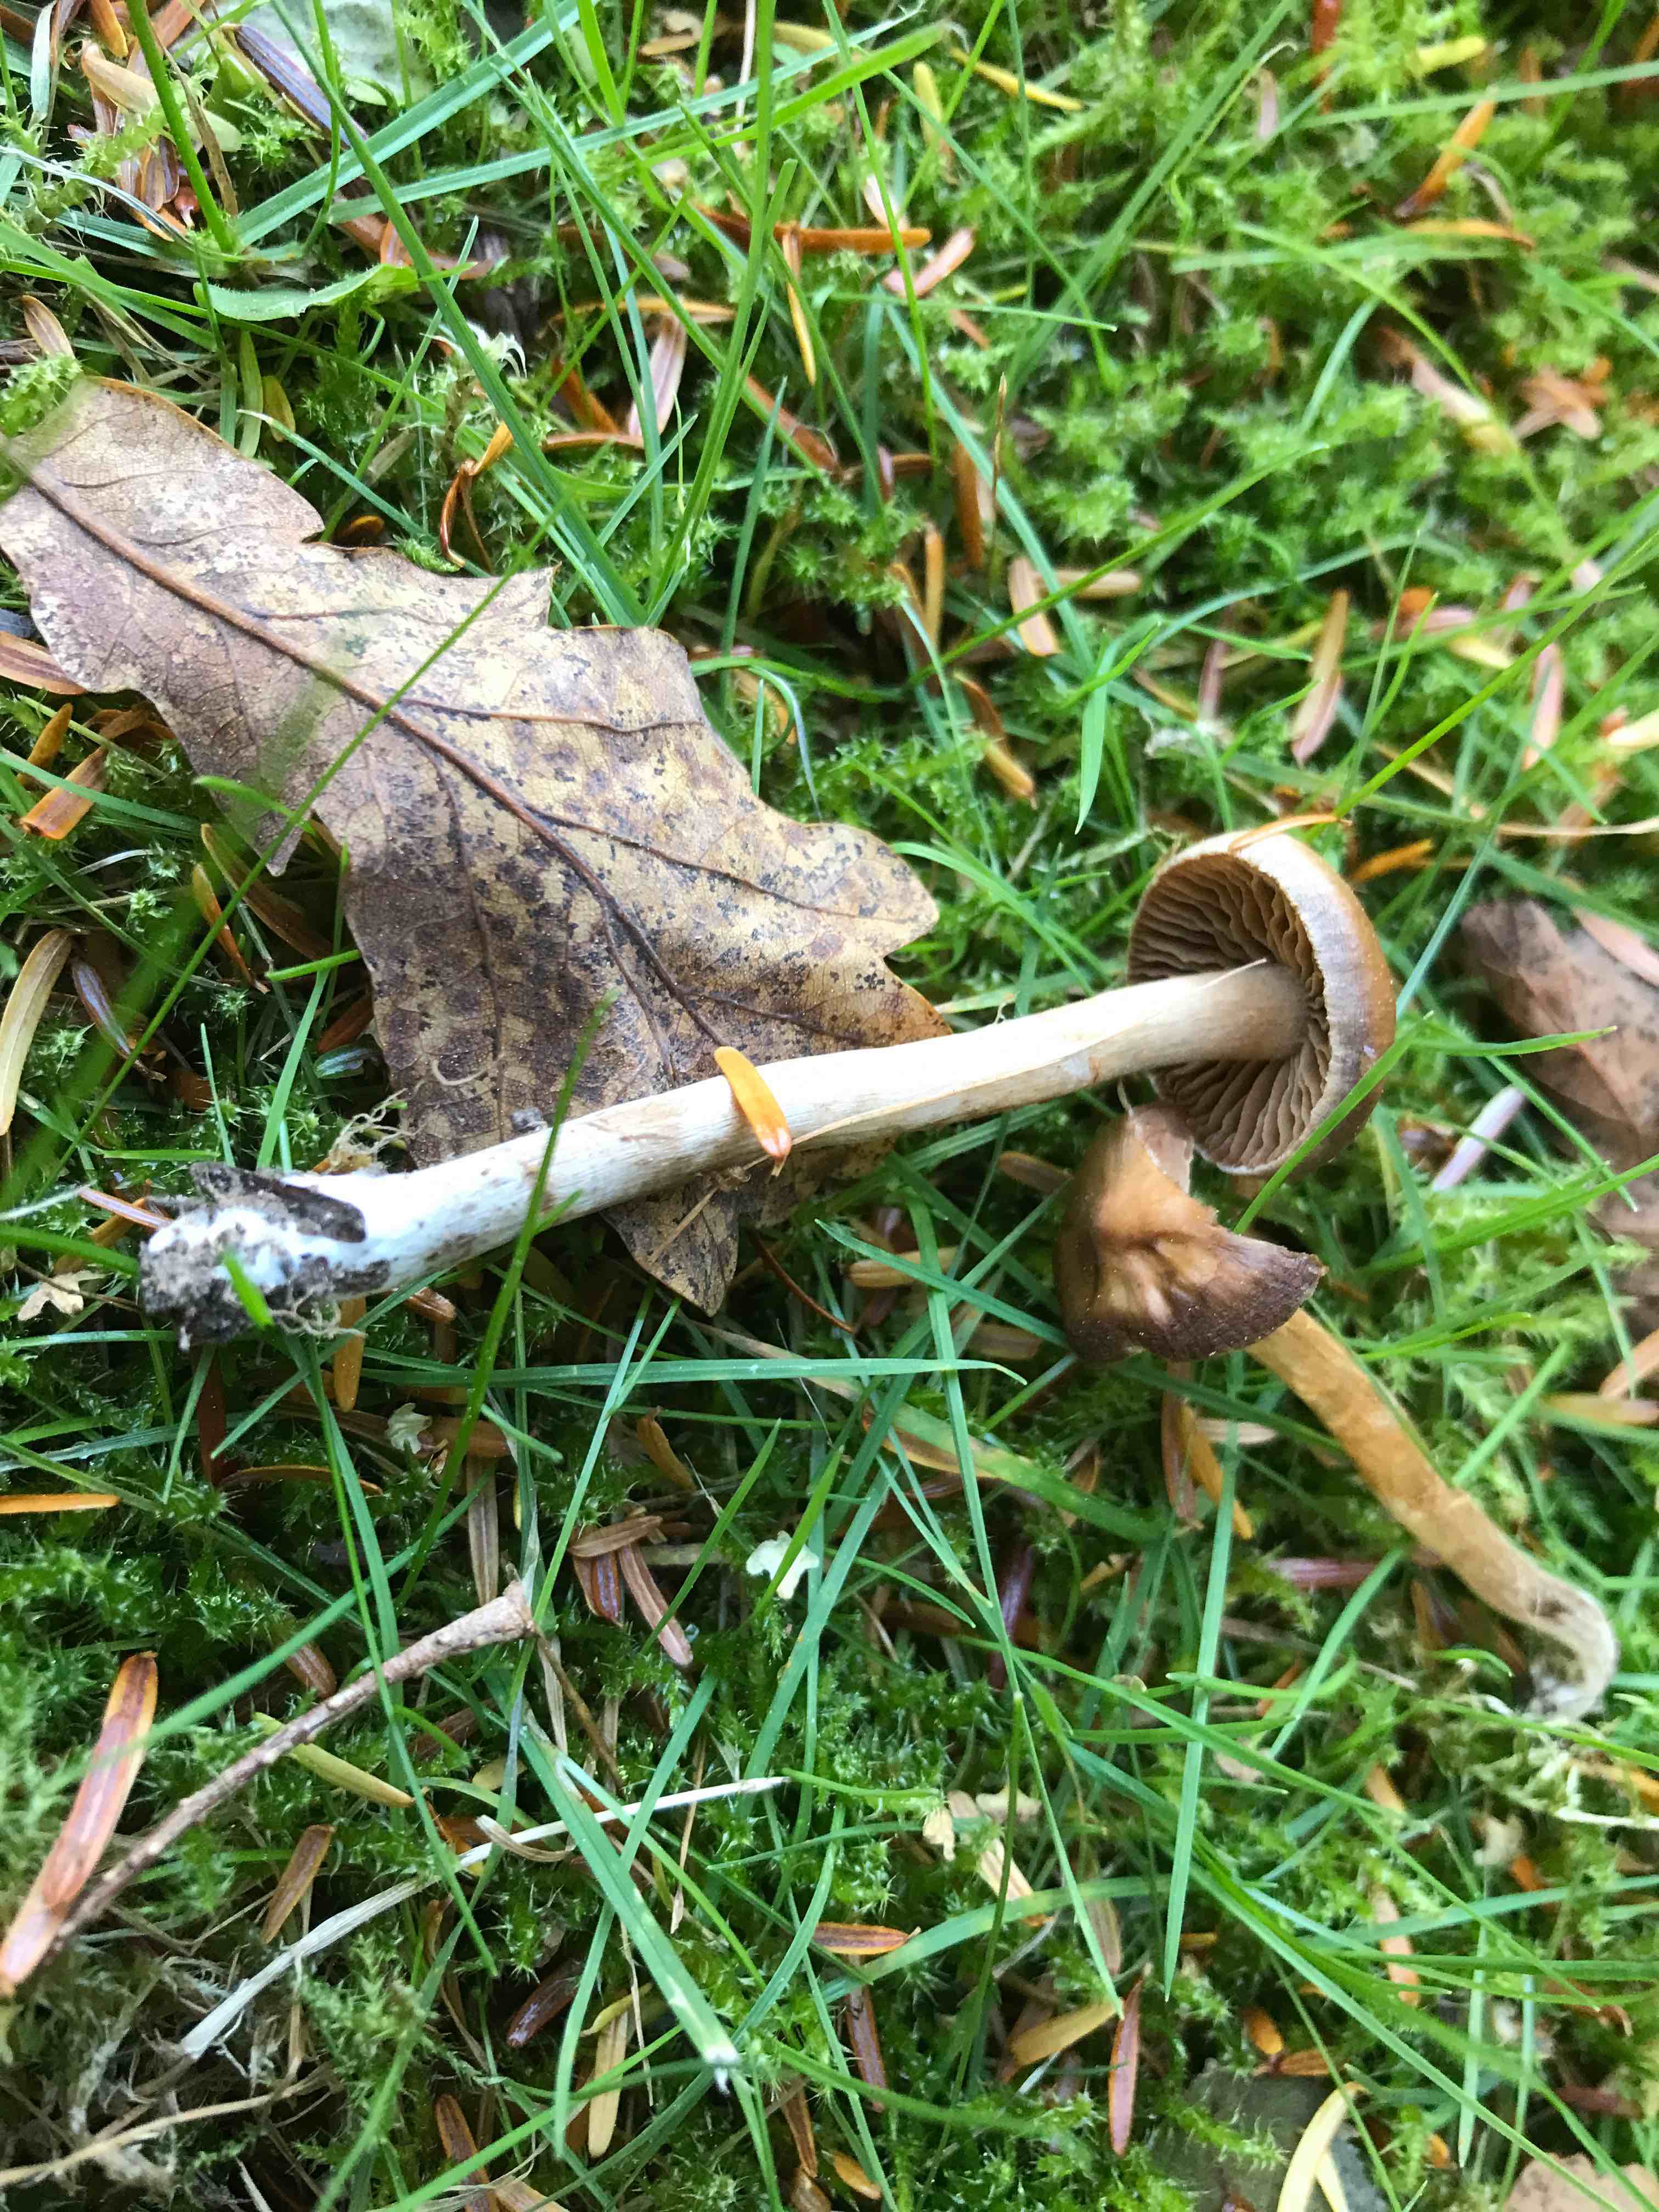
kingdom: Fungi
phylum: Basidiomycota
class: Agaricomycetes
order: Agaricales
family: Cortinariaceae
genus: Cortinarius
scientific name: Cortinarius
